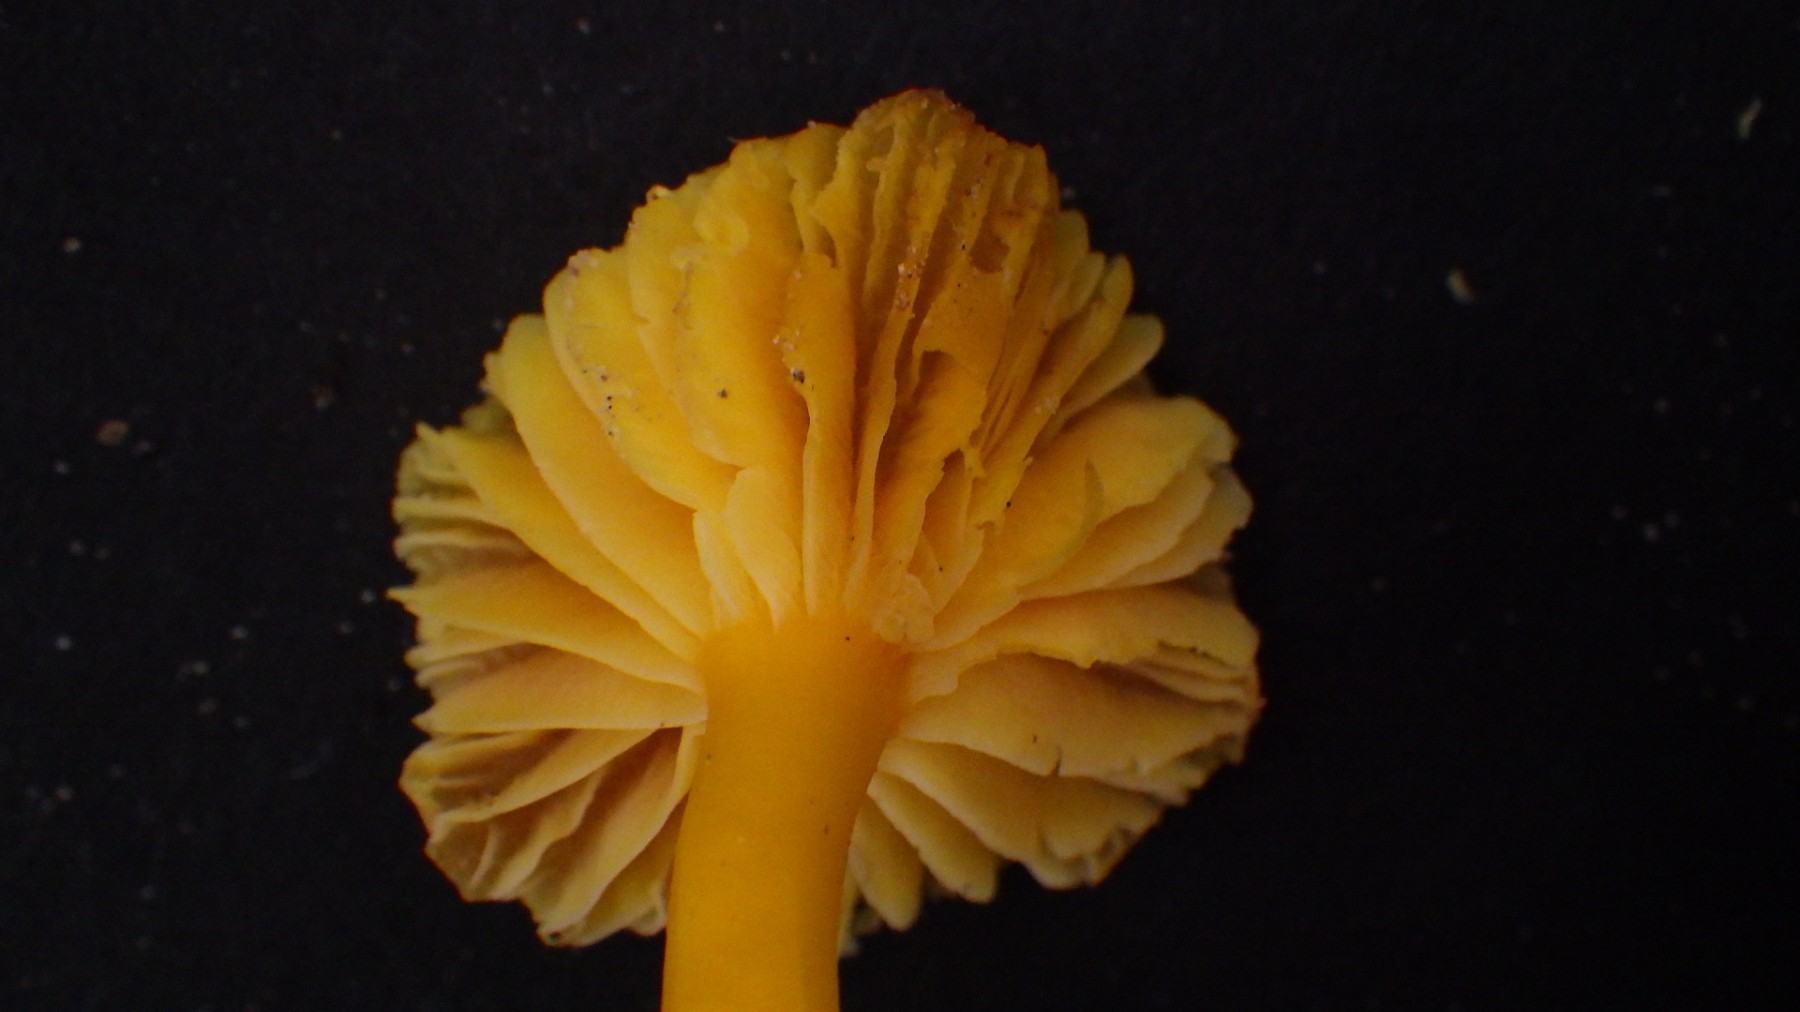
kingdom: Fungi
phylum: Basidiomycota
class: Agaricomycetes
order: Agaricales
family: Hygrophoraceae
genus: Hygrocybe
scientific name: Hygrocybe ceracea
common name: voksgul vokshat
